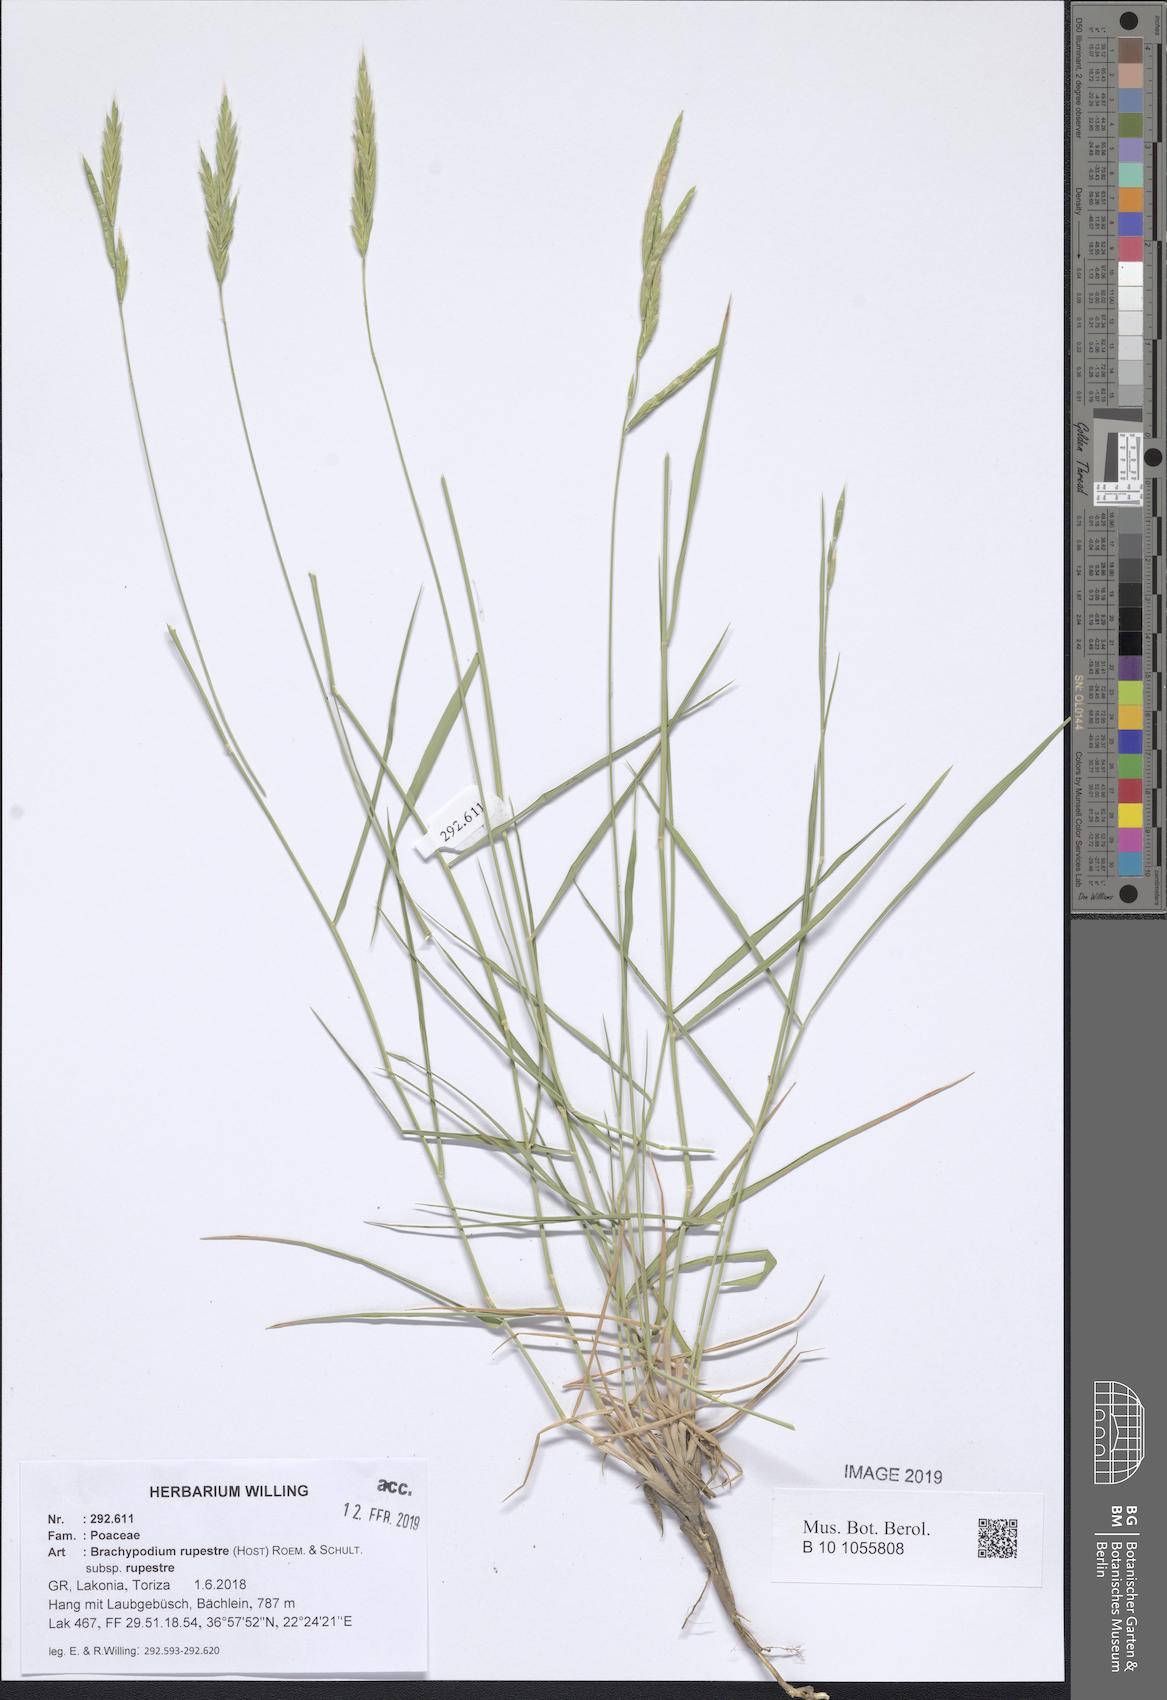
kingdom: Plantae
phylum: Tracheophyta
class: Liliopsida
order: Poales
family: Poaceae
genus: Brachypodium
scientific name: Brachypodium pinnatum
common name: Tor grass
